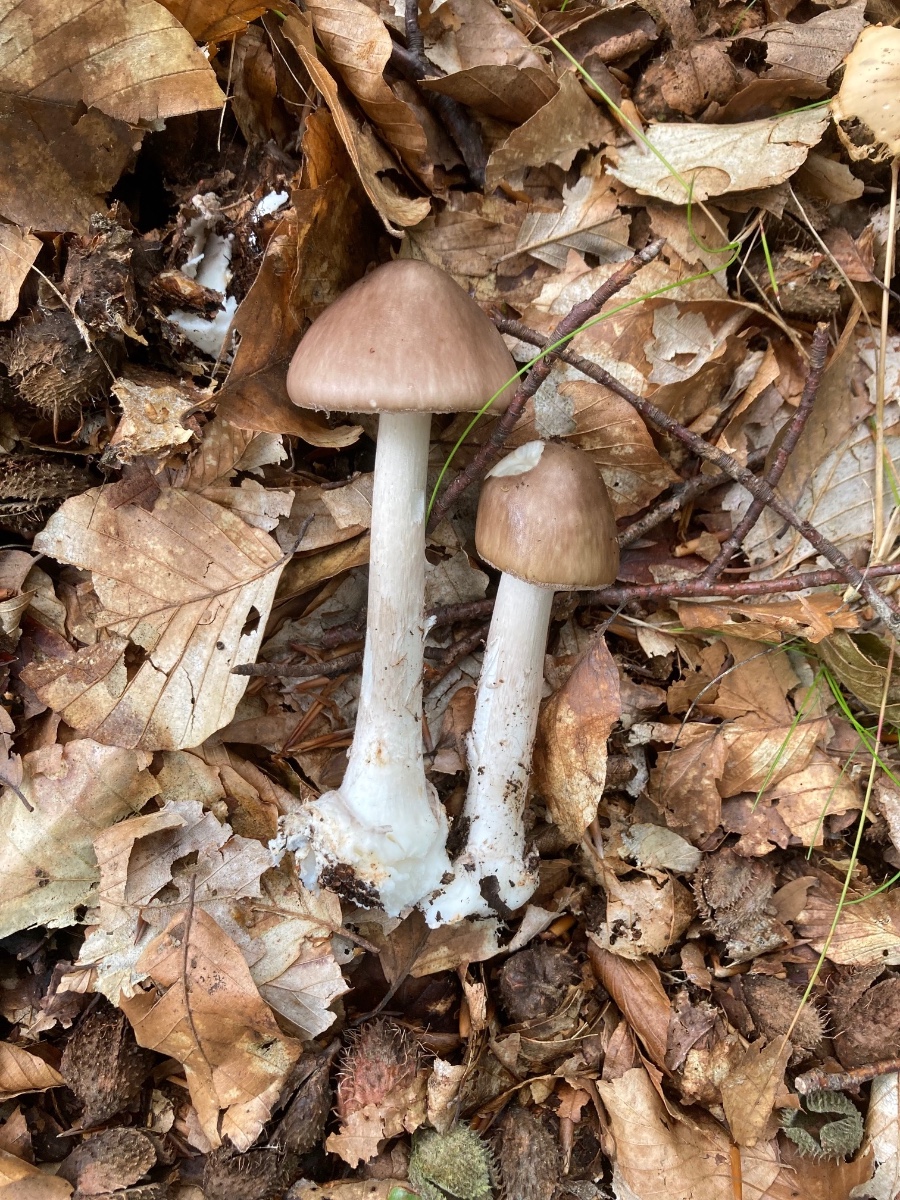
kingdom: Fungi
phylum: Basidiomycota
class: Agaricomycetes
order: Agaricales
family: Amanitaceae
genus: Amanita
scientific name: Amanita porphyria
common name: porfyr-fluesvamp
